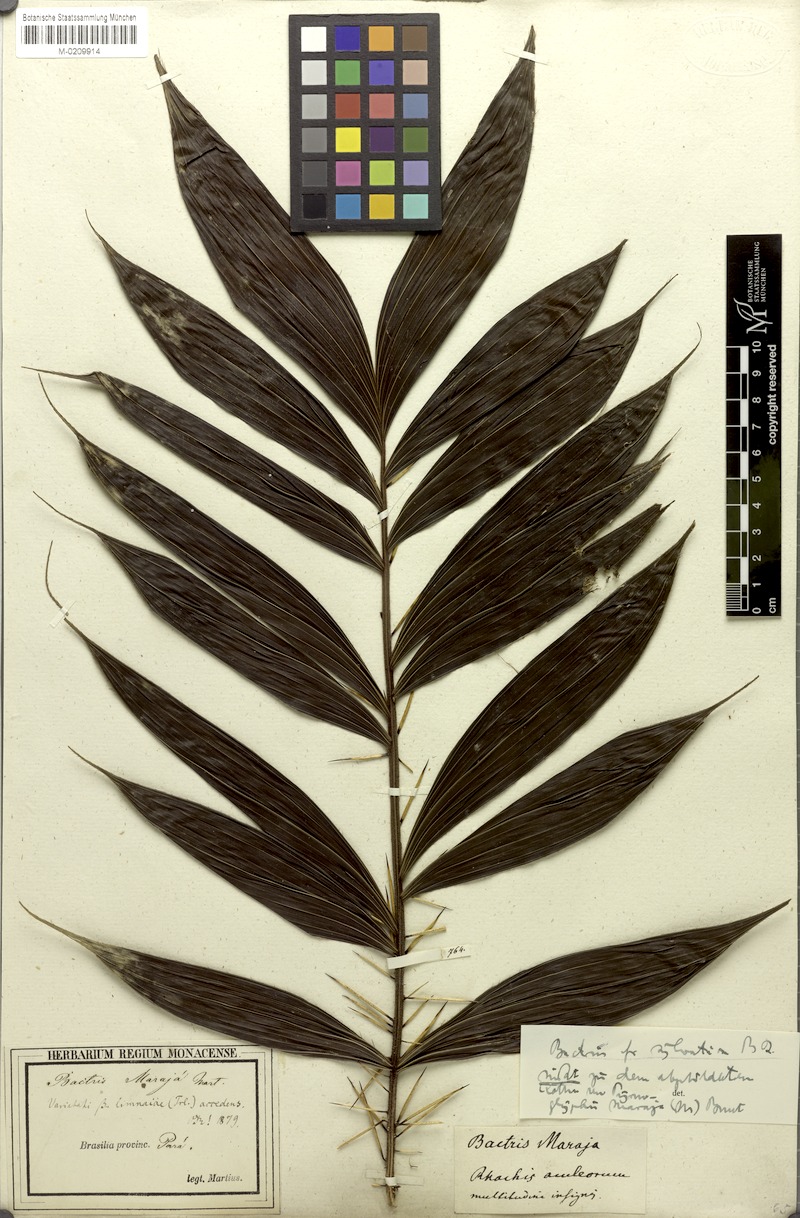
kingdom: Plantae
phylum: Tracheophyta
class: Liliopsida
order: Arecales
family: Arecaceae
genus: Bactris
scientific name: Bactris maraja
